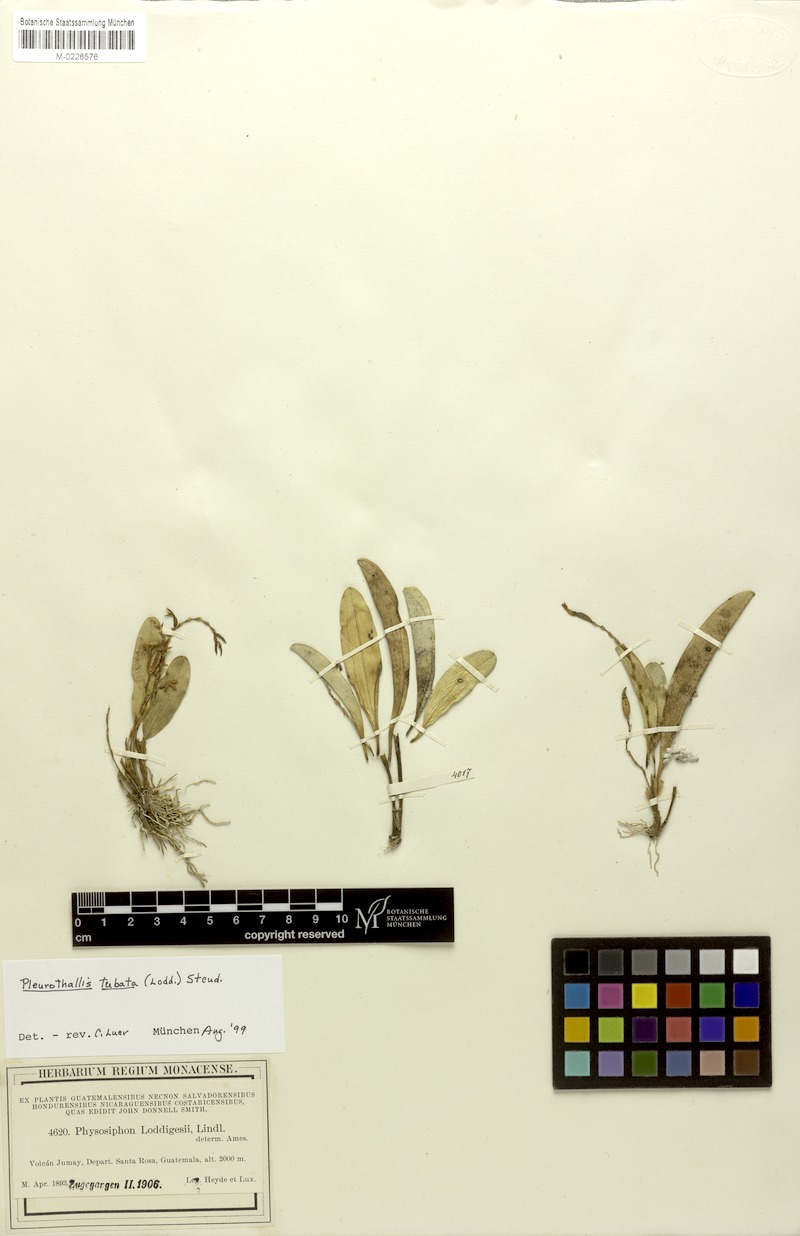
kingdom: Plantae
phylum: Tracheophyta
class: Liliopsida
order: Asparagales
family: Orchidaceae
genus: Stelis
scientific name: Stelis emarginata
